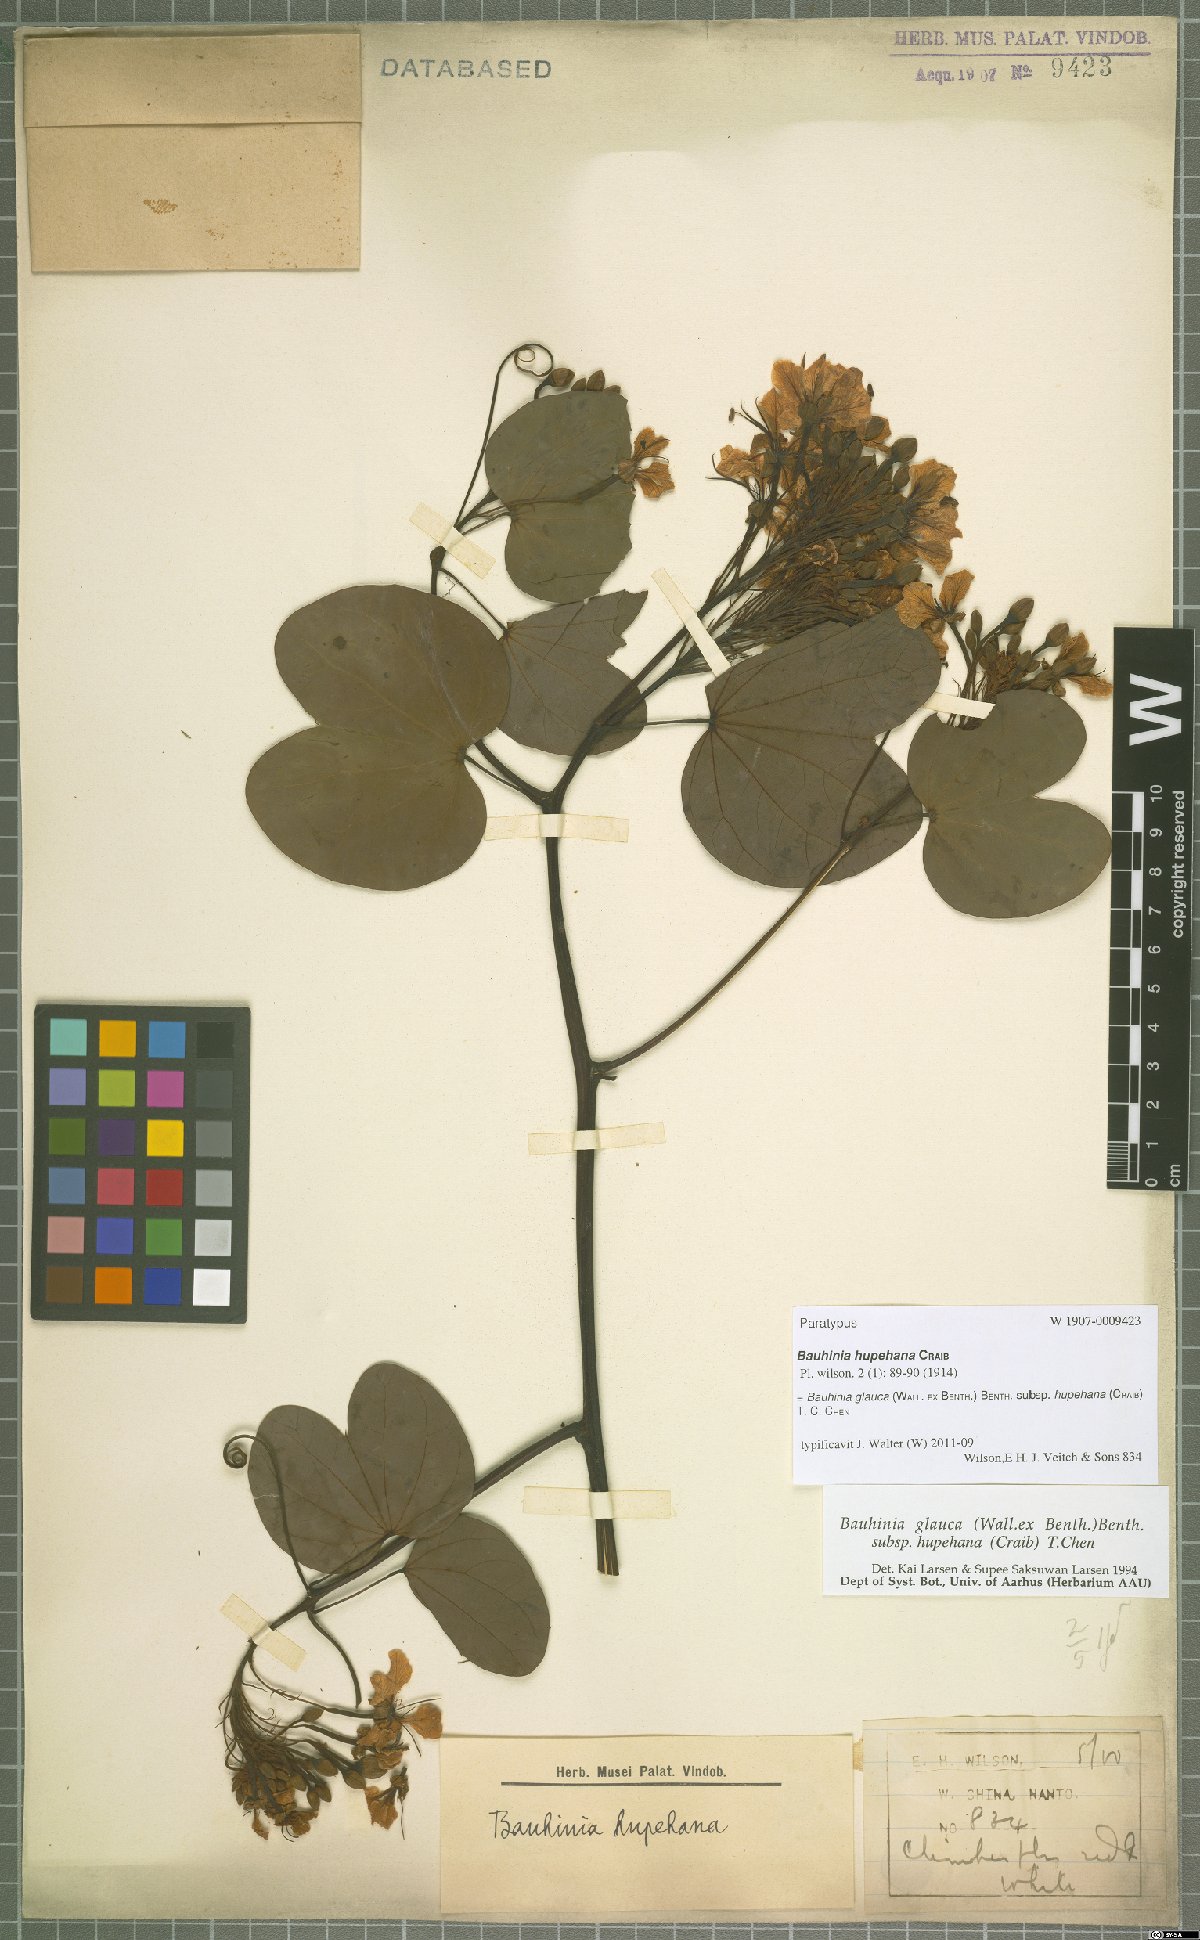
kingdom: Plantae
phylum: Tracheophyta
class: Magnoliopsida
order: Fabales
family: Fabaceae
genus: Cheniella
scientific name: Cheniella tenuiflora
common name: Bauhinia
